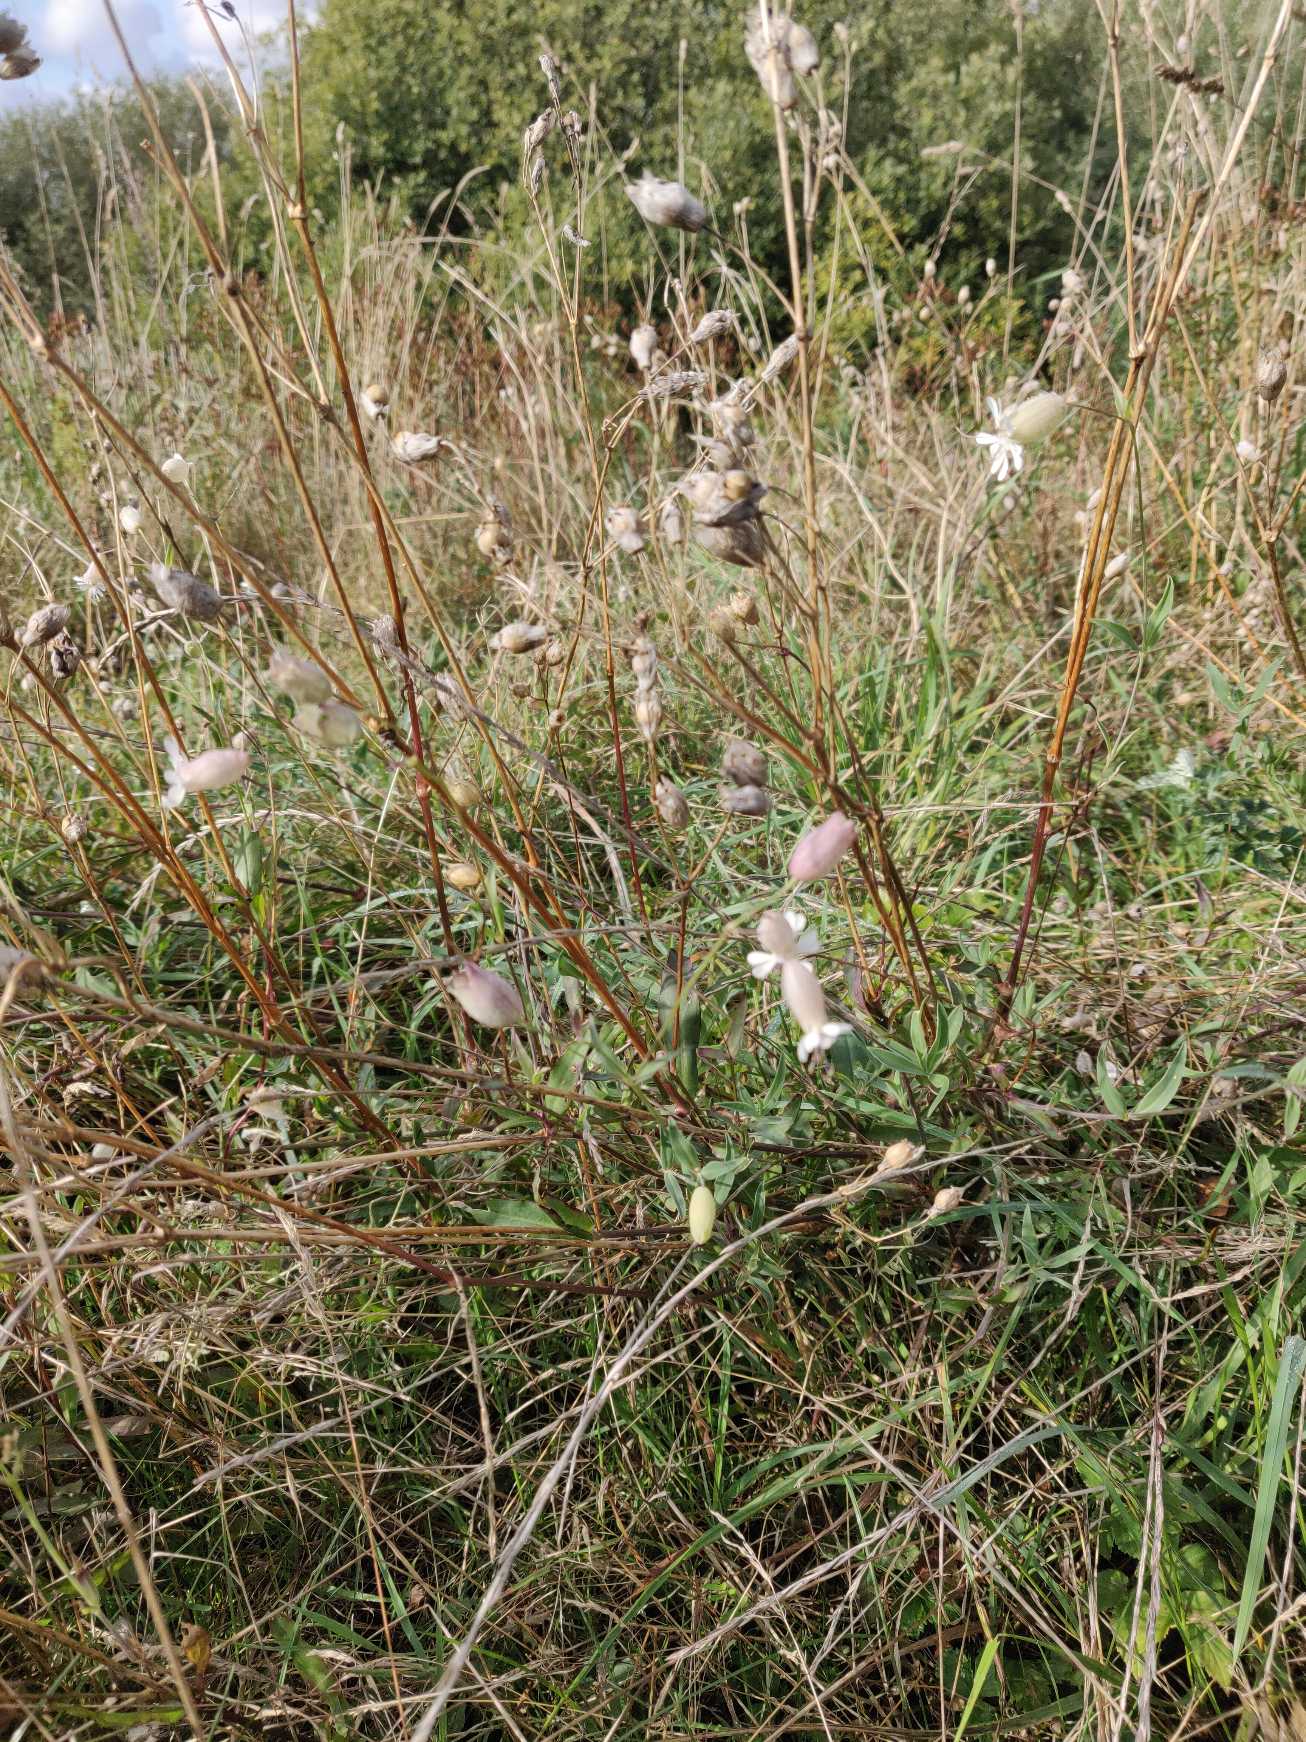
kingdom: Plantae
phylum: Tracheophyta
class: Magnoliopsida
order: Caryophyllales
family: Caryophyllaceae
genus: Silene
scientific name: Silene vulgaris
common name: Blæresmælde
